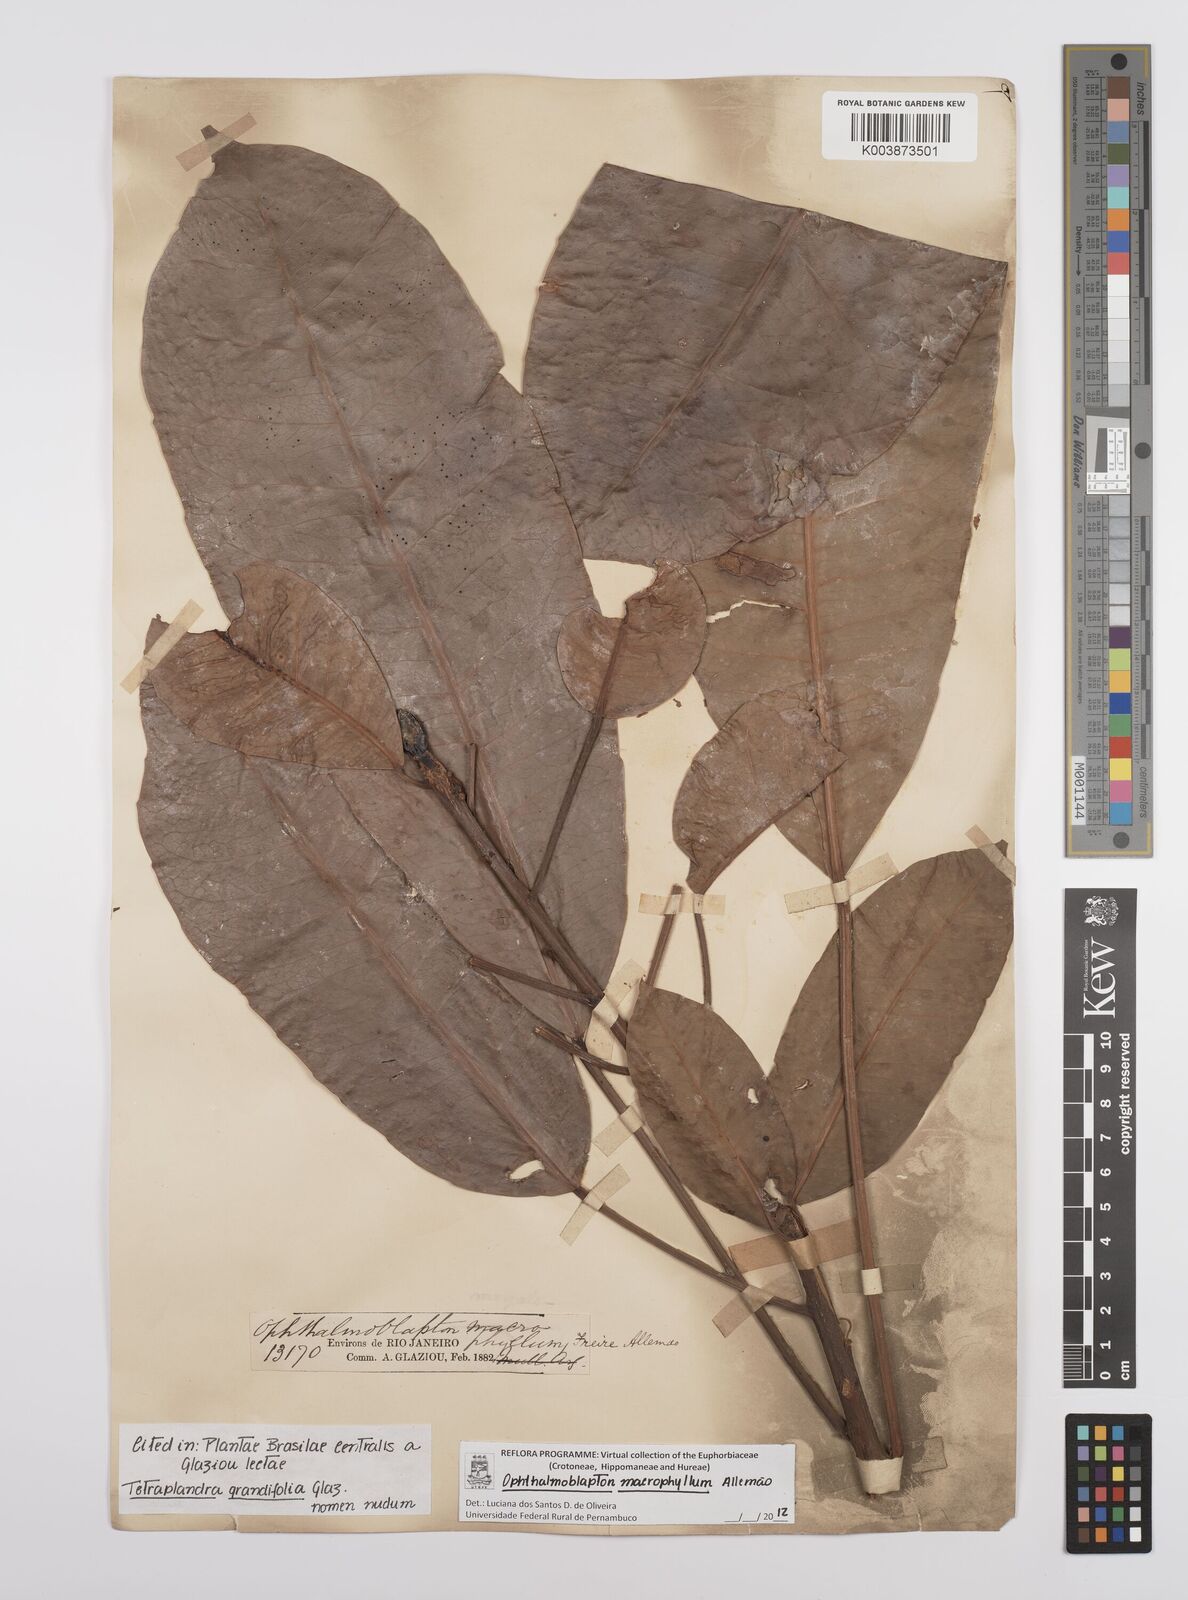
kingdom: Plantae
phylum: Tracheophyta
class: Magnoliopsida
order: Malpighiales
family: Euphorbiaceae
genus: Ophthalmoblapton
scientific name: Ophthalmoblapton macrophyllum
